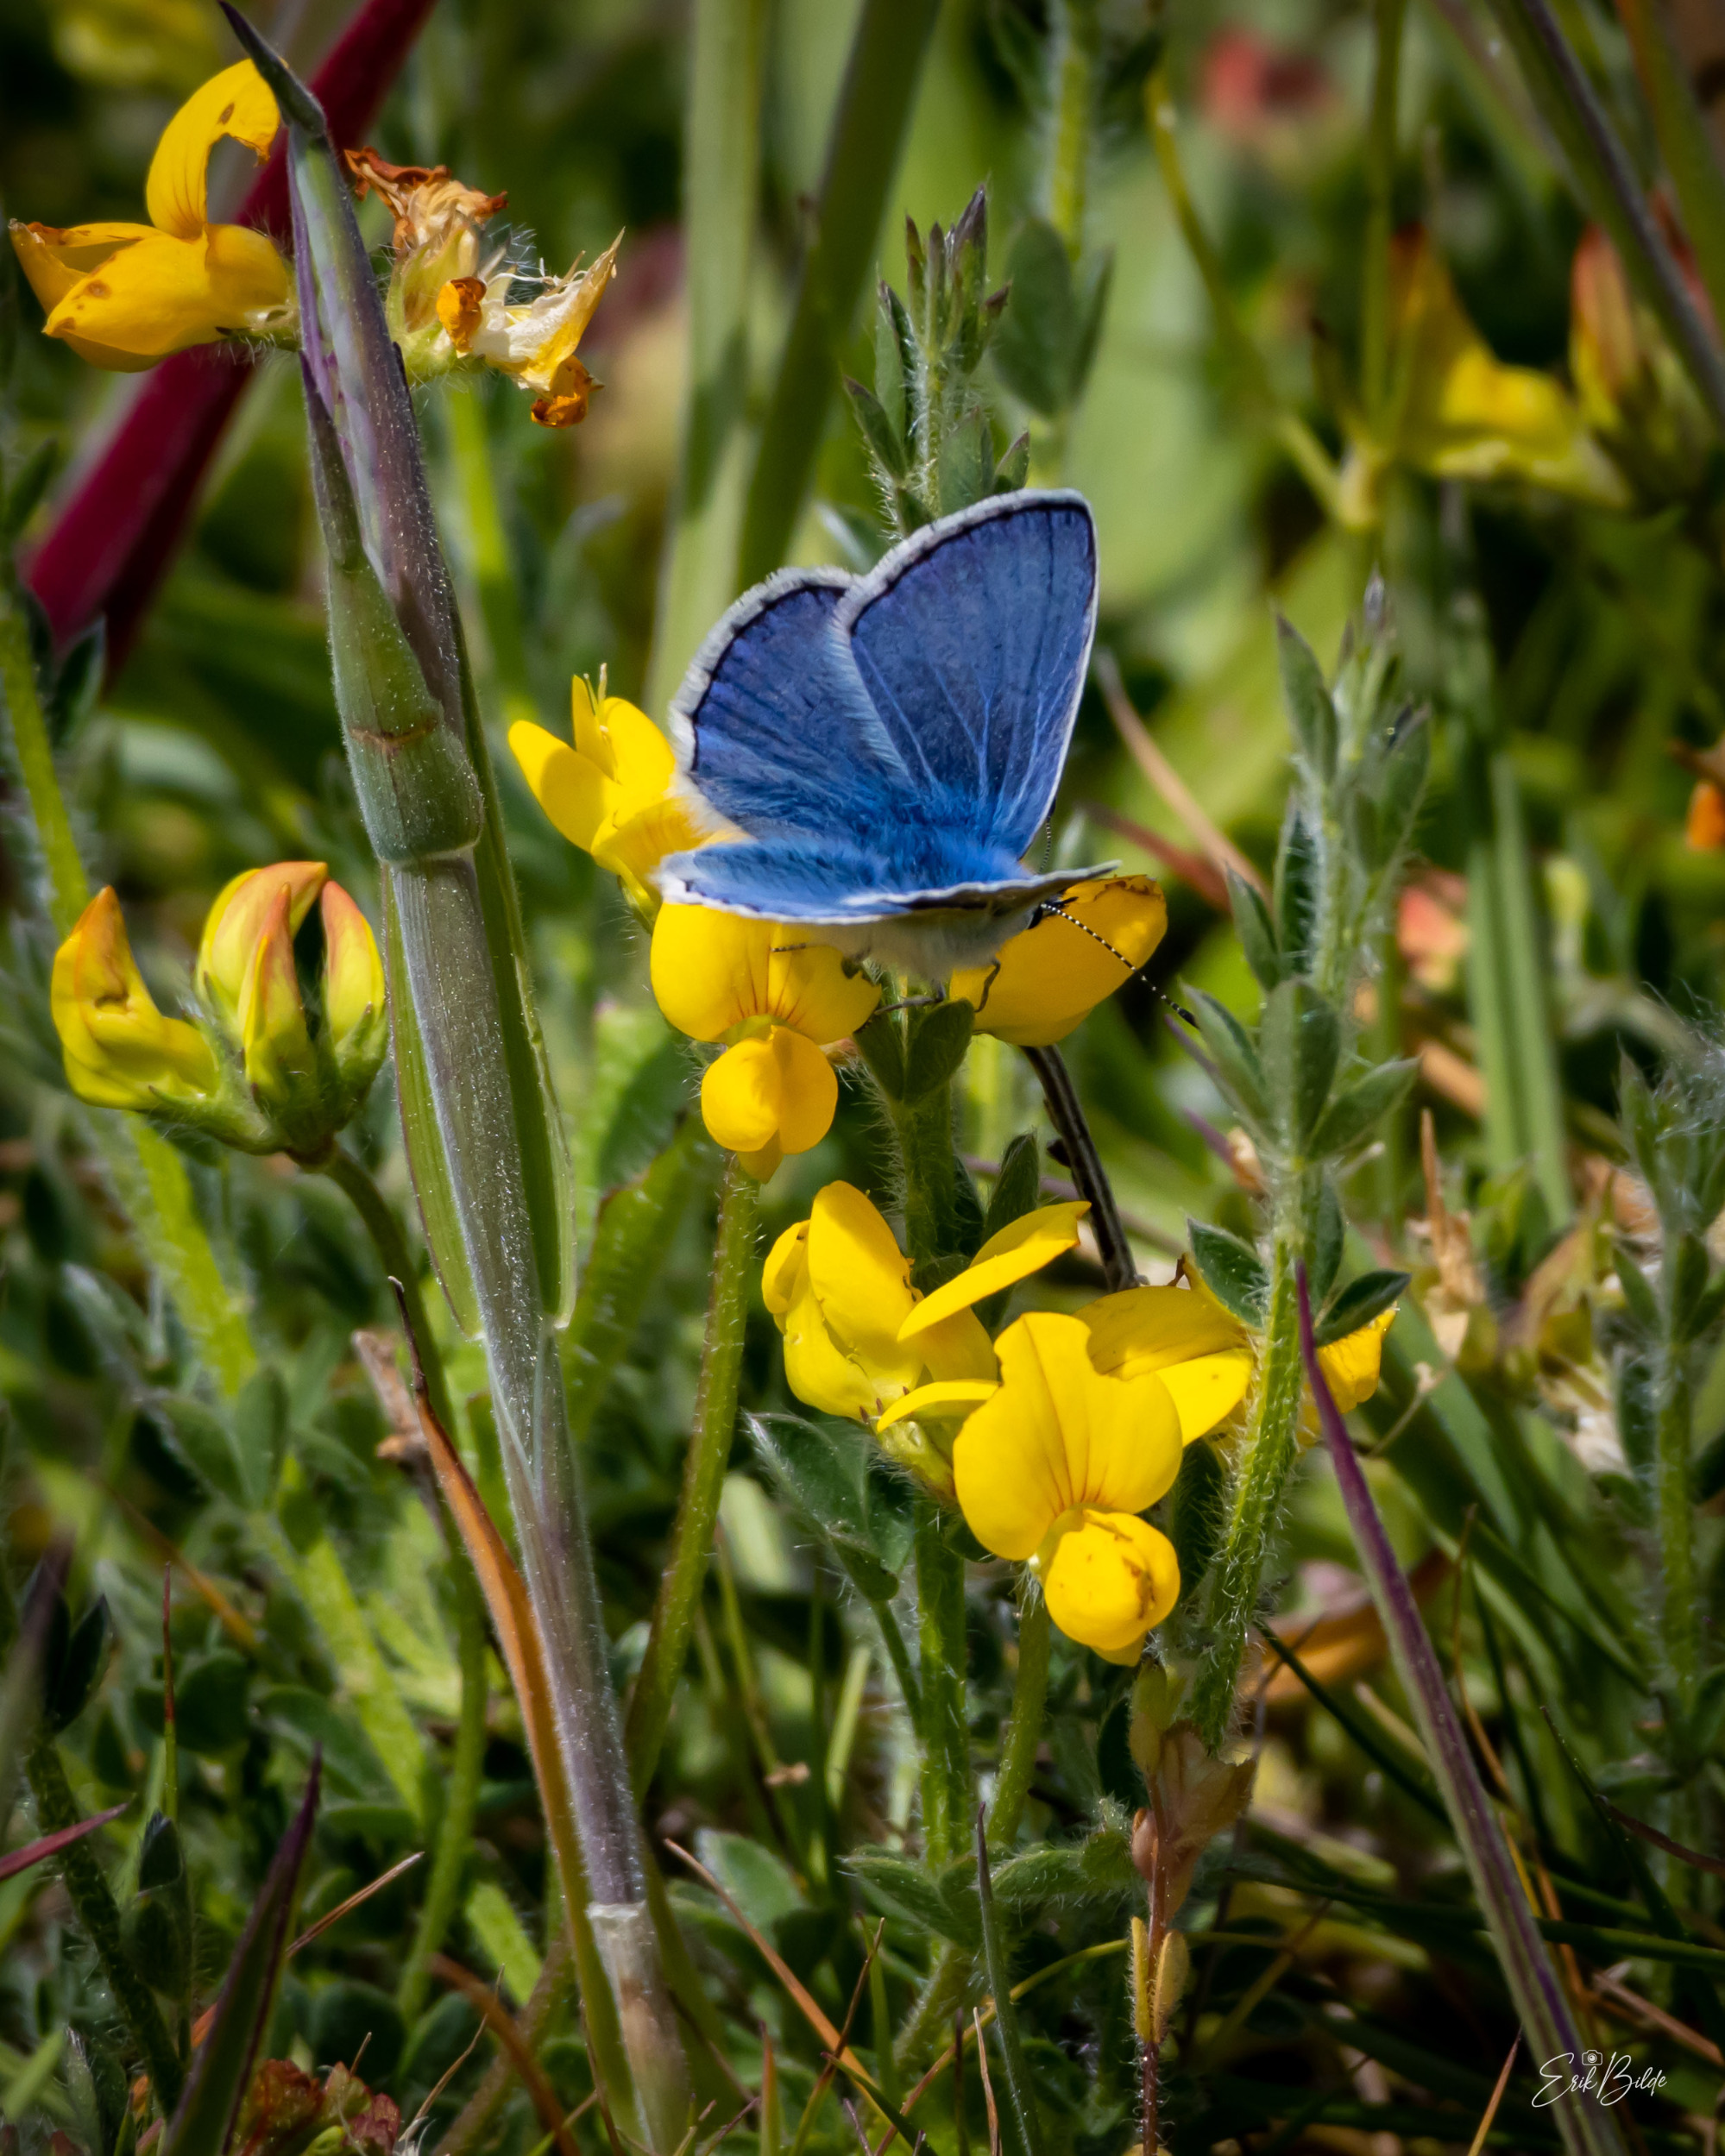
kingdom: Animalia
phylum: Arthropoda
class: Insecta
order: Lepidoptera
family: Lycaenidae
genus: Polyommatus
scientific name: Polyommatus icarus
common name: Almindelig blåfugl
